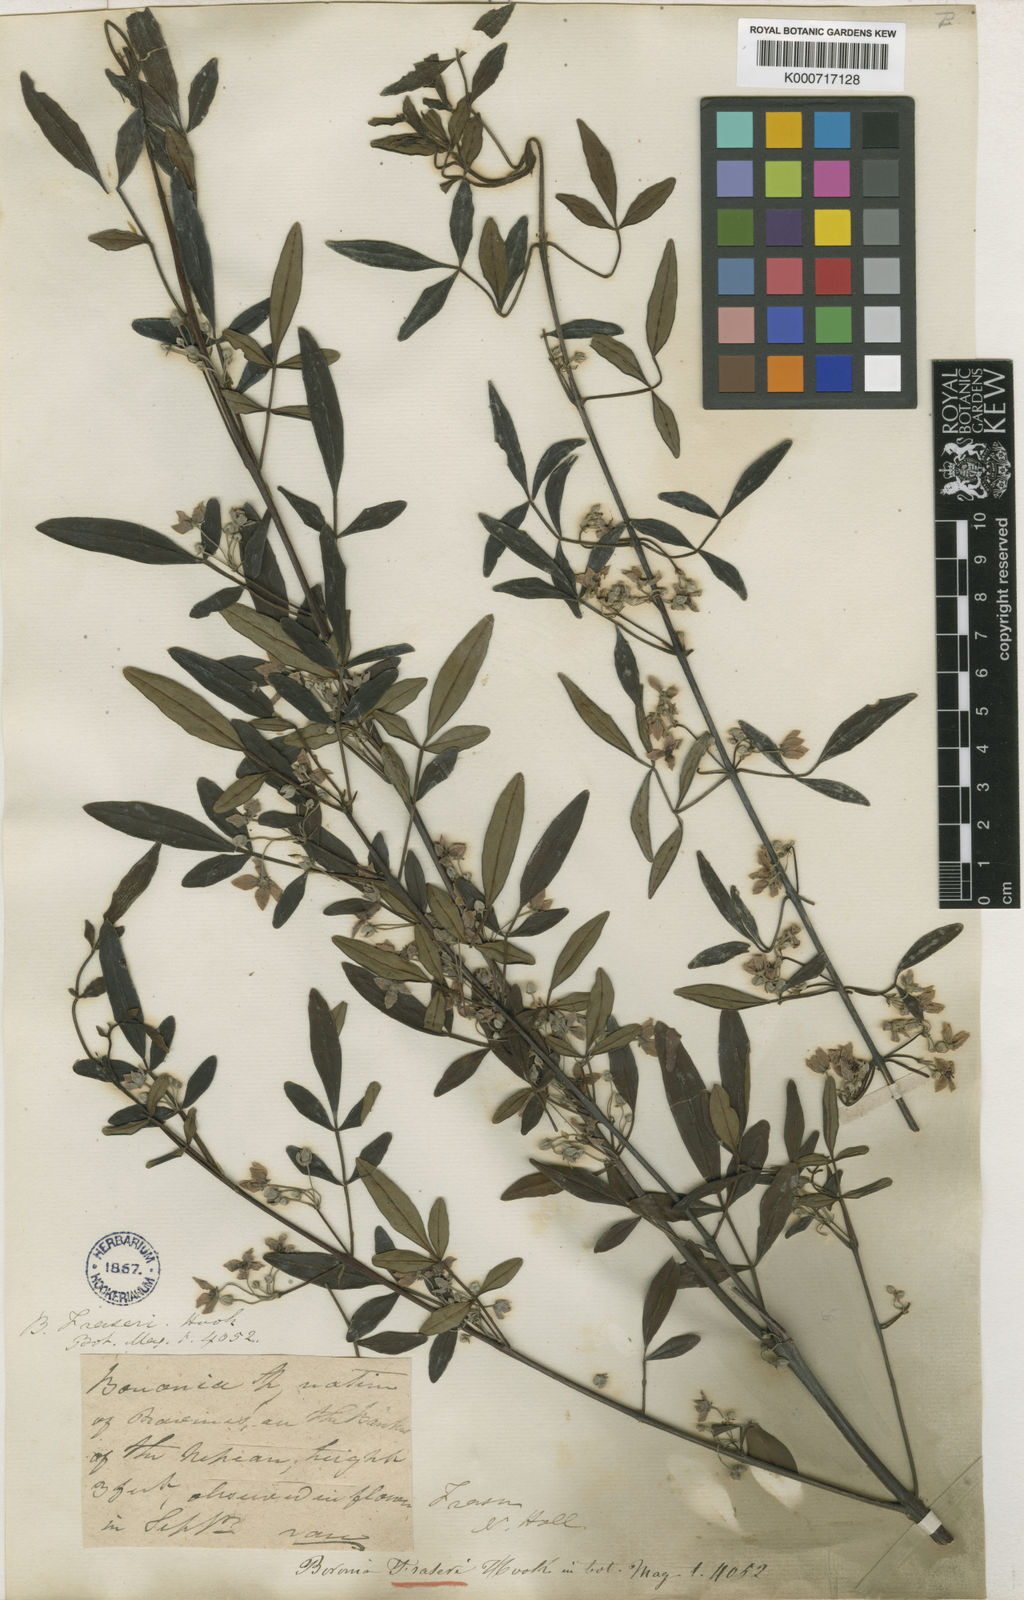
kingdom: Plantae
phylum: Tracheophyta
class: Magnoliopsida
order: Sapindales
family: Rutaceae
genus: Boronia
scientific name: Boronia fraseri
